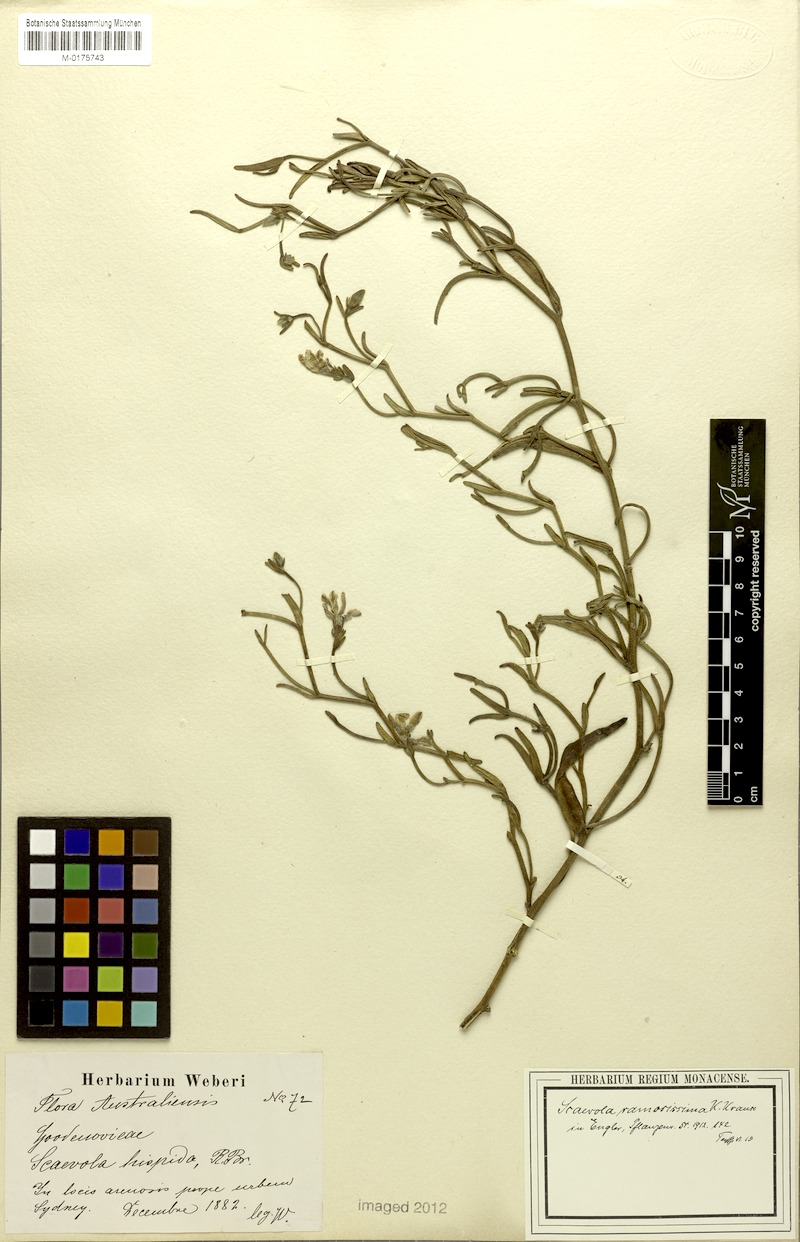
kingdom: Plantae
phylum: Tracheophyta
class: Magnoliopsida
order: Asterales
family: Goodeniaceae
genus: Scaevola
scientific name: Scaevola ramosissima
